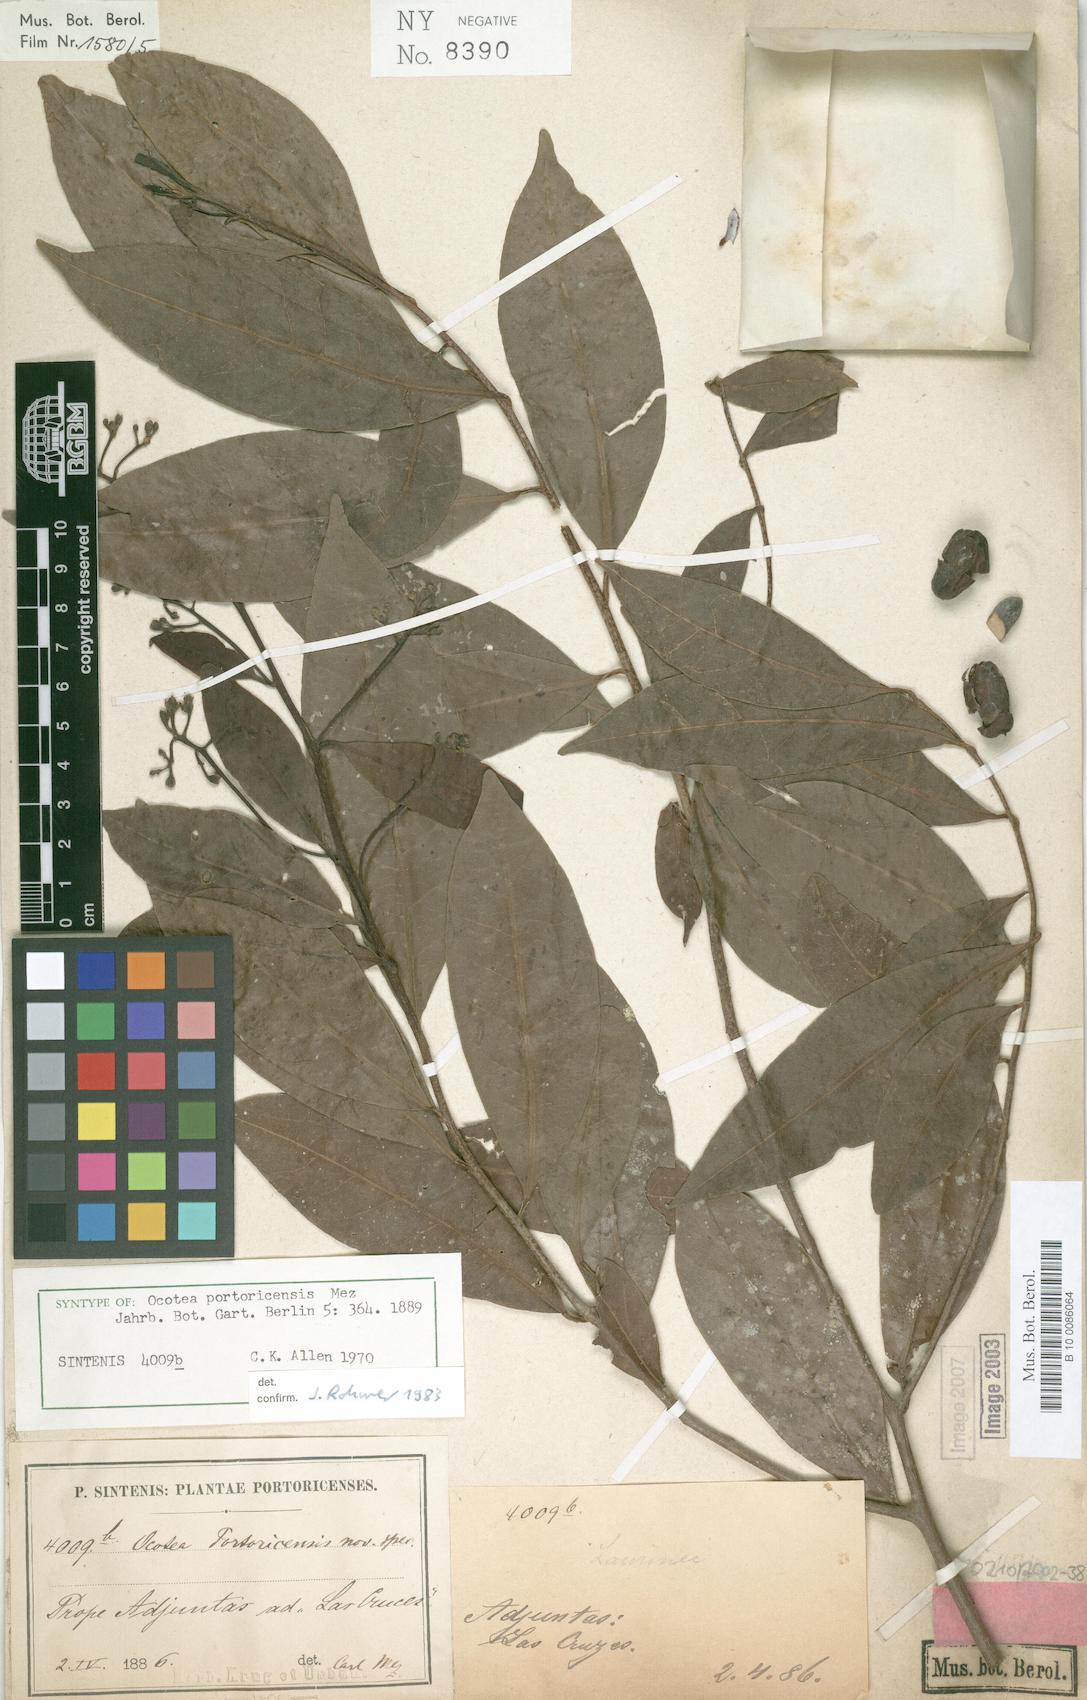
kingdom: Plantae
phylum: Tracheophyta
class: Magnoliopsida
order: Laurales
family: Lauraceae
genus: Ocotea
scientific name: Ocotea portoricensis
